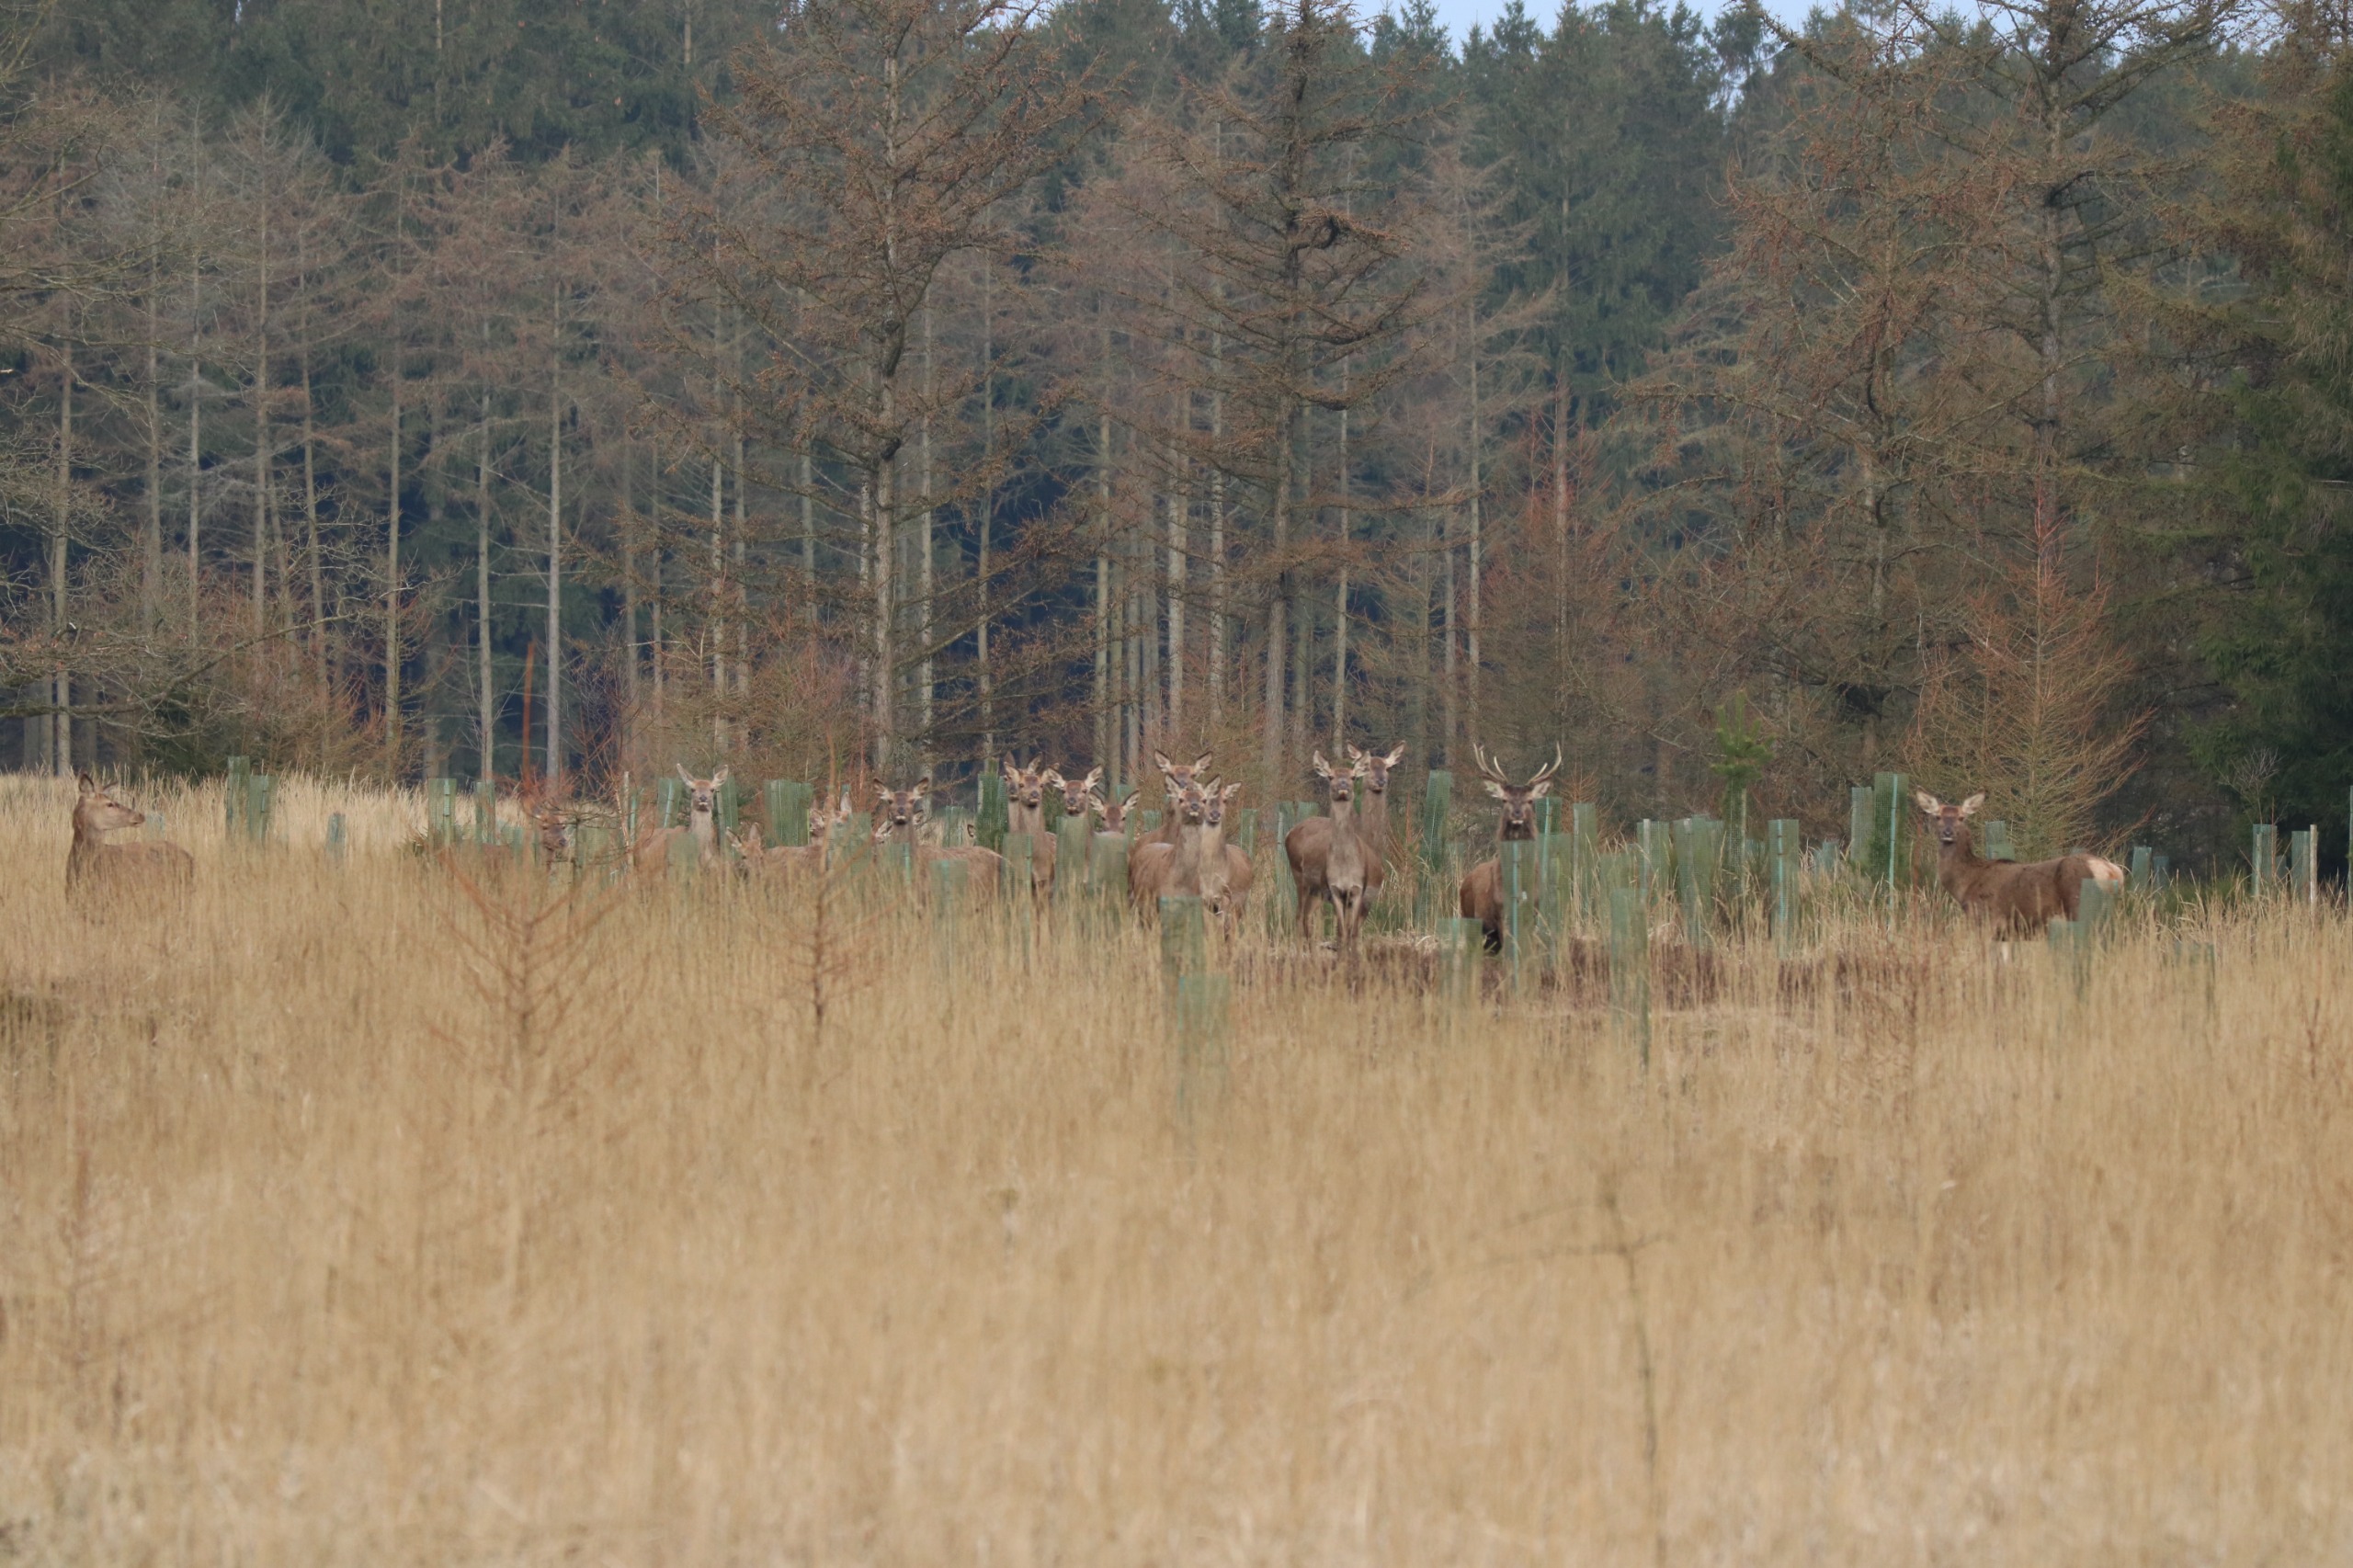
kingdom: Animalia
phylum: Chordata
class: Mammalia
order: Artiodactyla
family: Cervidae
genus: Cervus
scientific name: Cervus elaphus
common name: Krondyr
